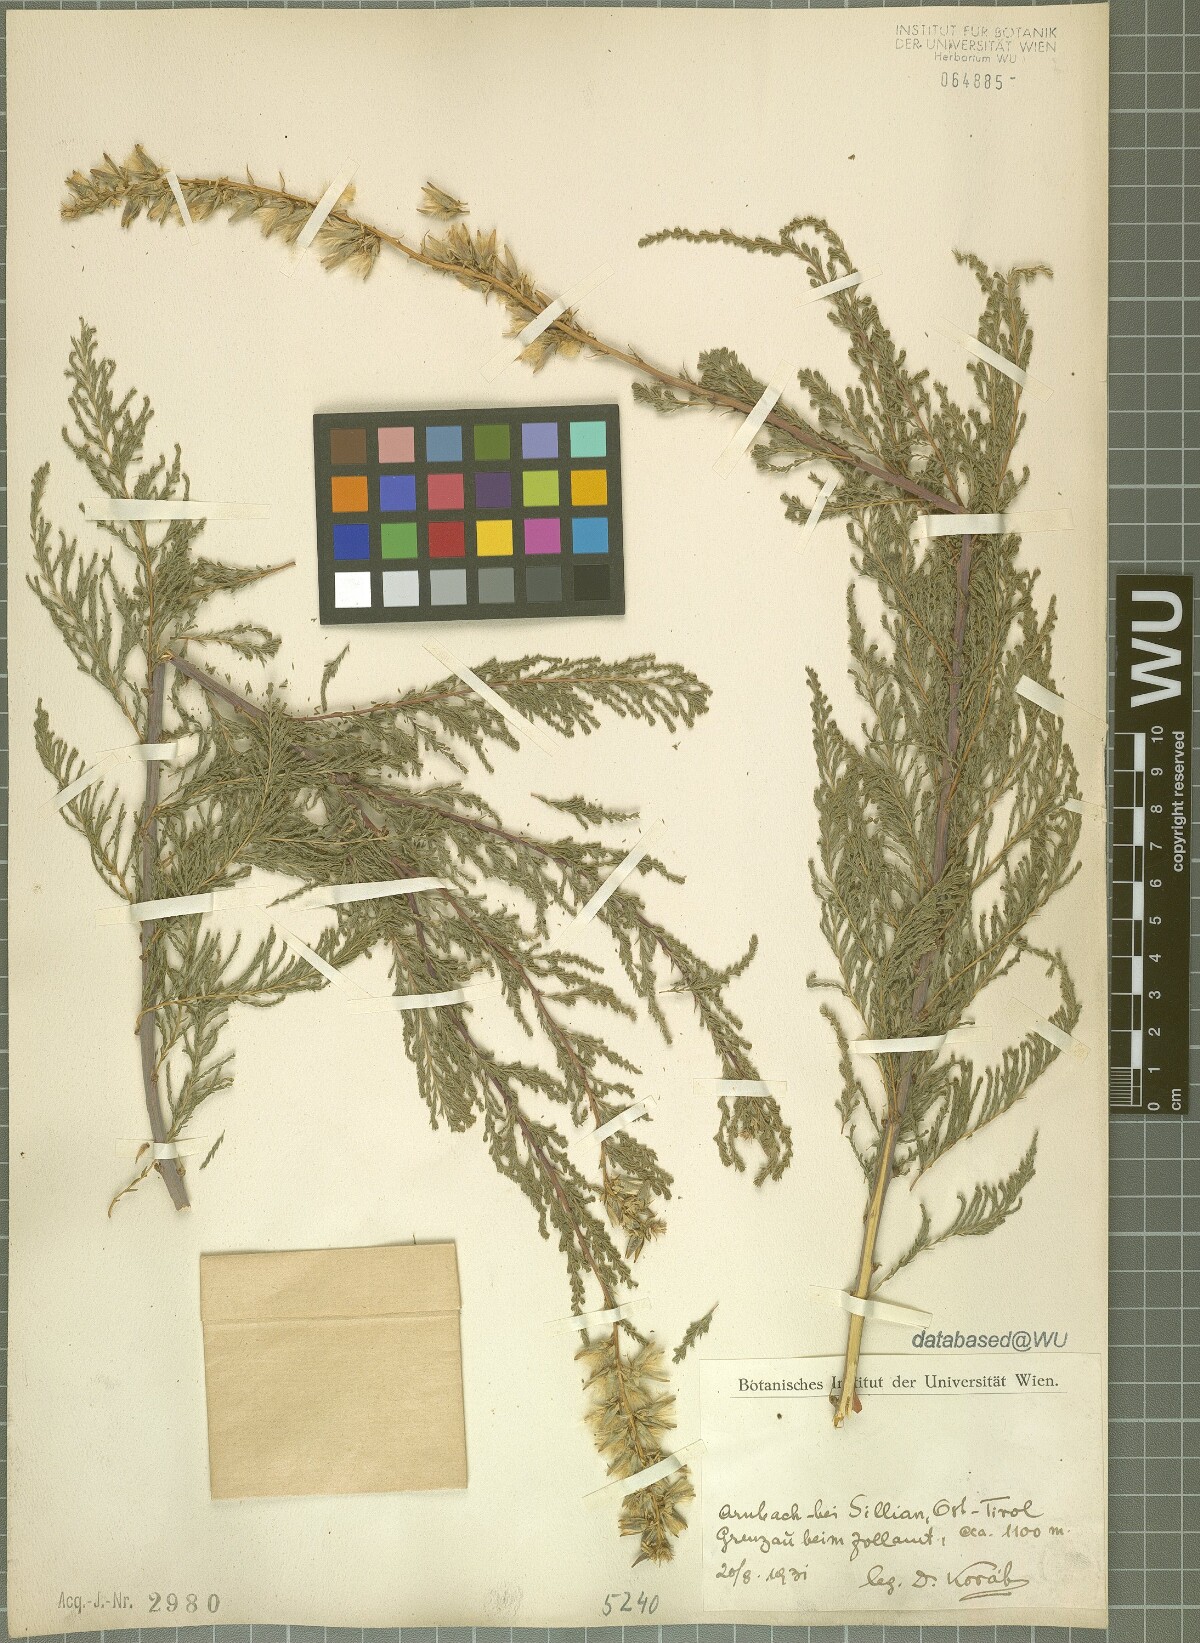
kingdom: Plantae
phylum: Tracheophyta
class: Magnoliopsida
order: Caryophyllales
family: Tamaricaceae
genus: Myricaria
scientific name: Myricaria germanica
